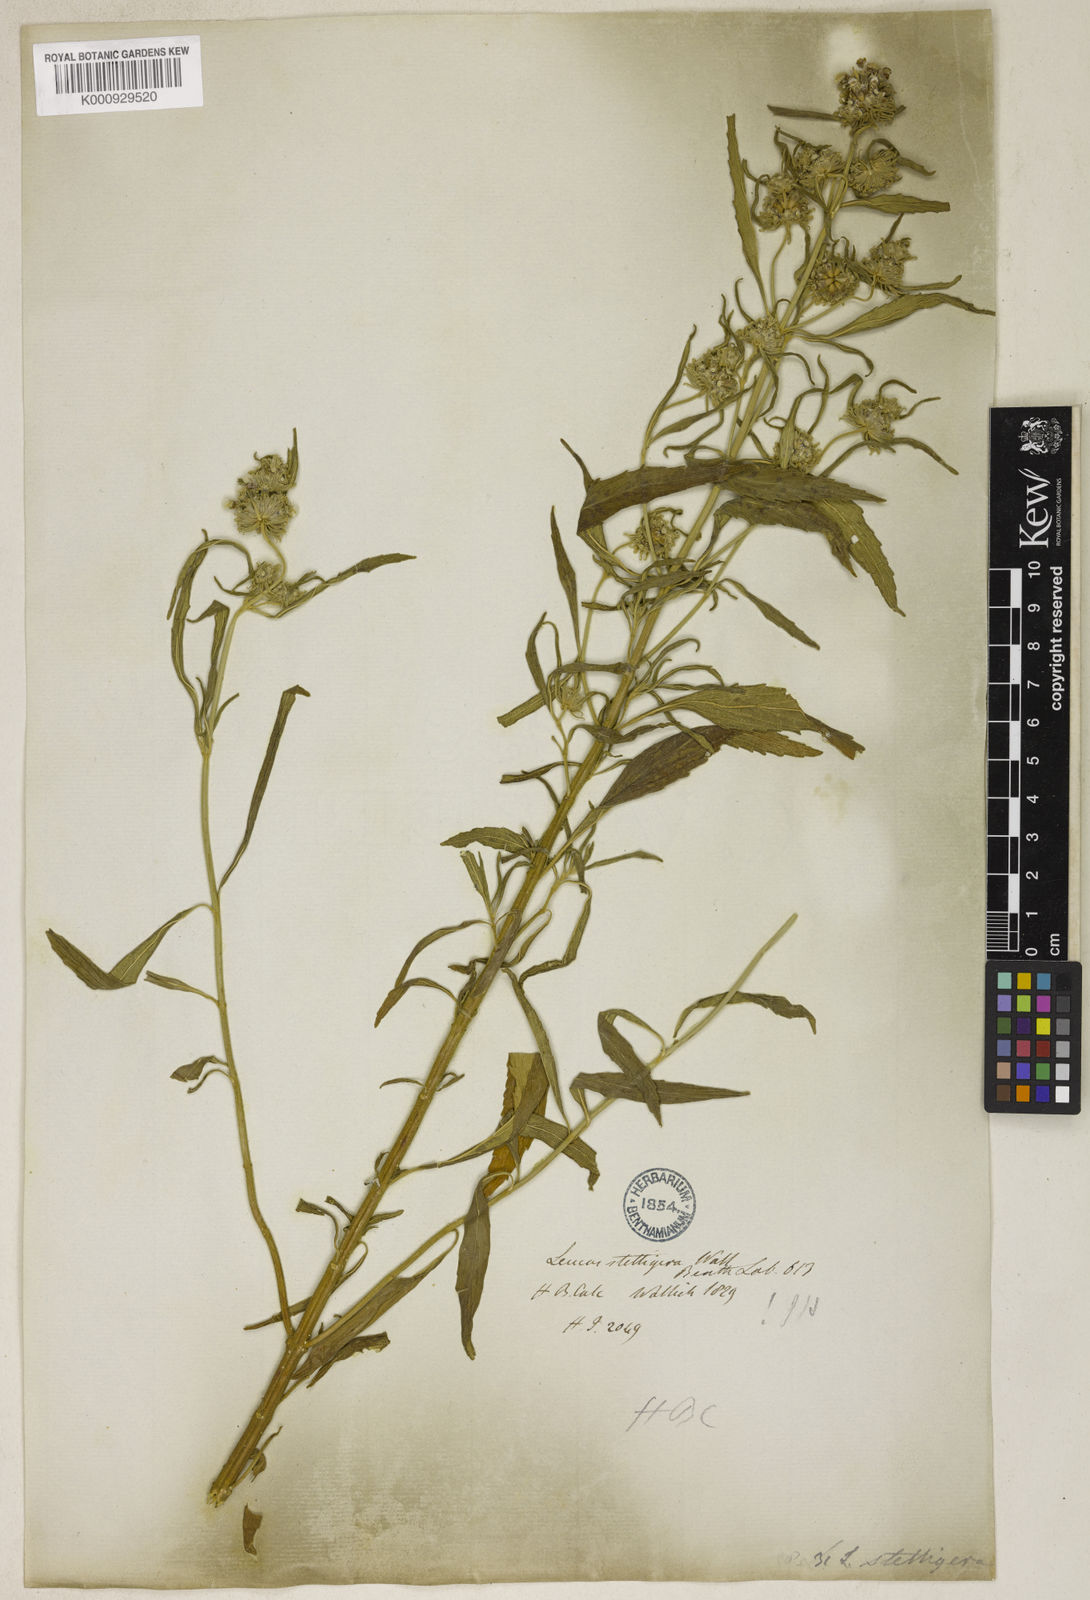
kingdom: Plantae
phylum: Tracheophyta
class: Magnoliopsida
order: Lamiales
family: Lamiaceae
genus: Leucas
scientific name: Leucas stelligera
